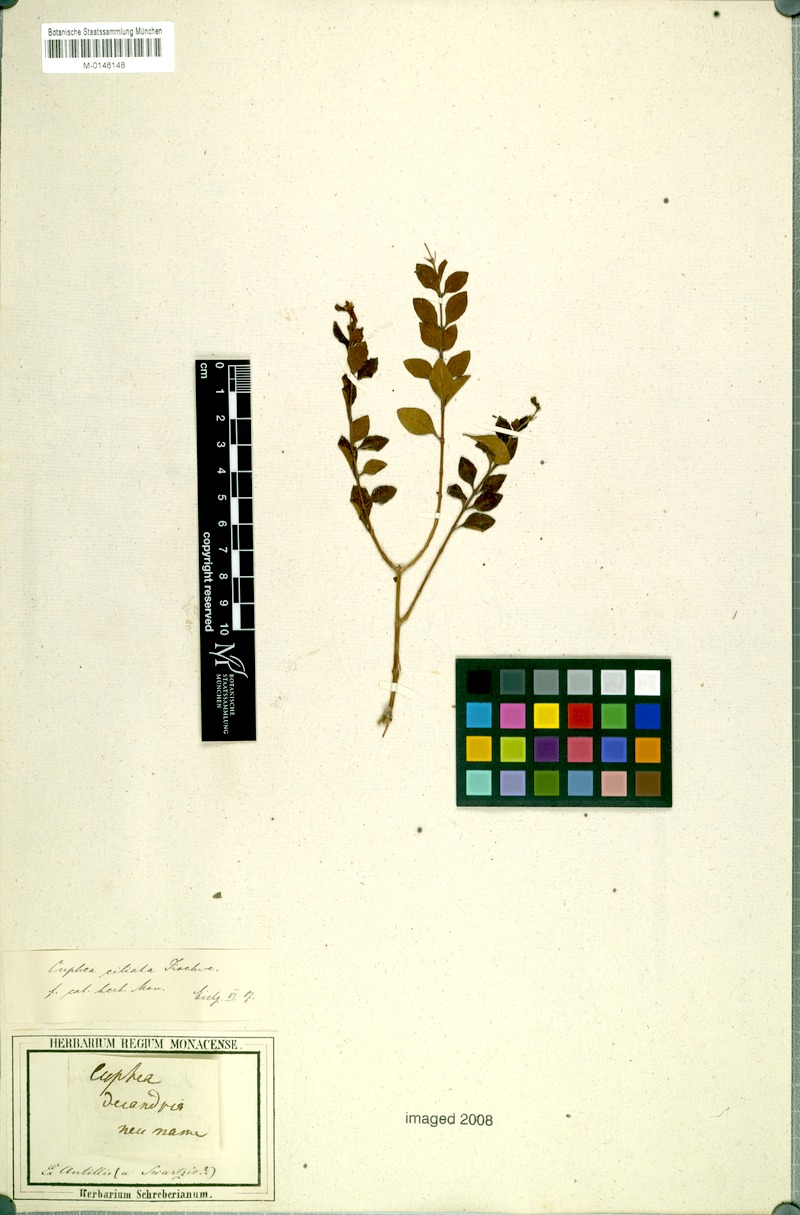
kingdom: Plantae
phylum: Tracheophyta
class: Magnoliopsida
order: Myrtales
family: Lythraceae
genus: Cuphea
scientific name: Cuphea micropetala
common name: Candycorn-plant
